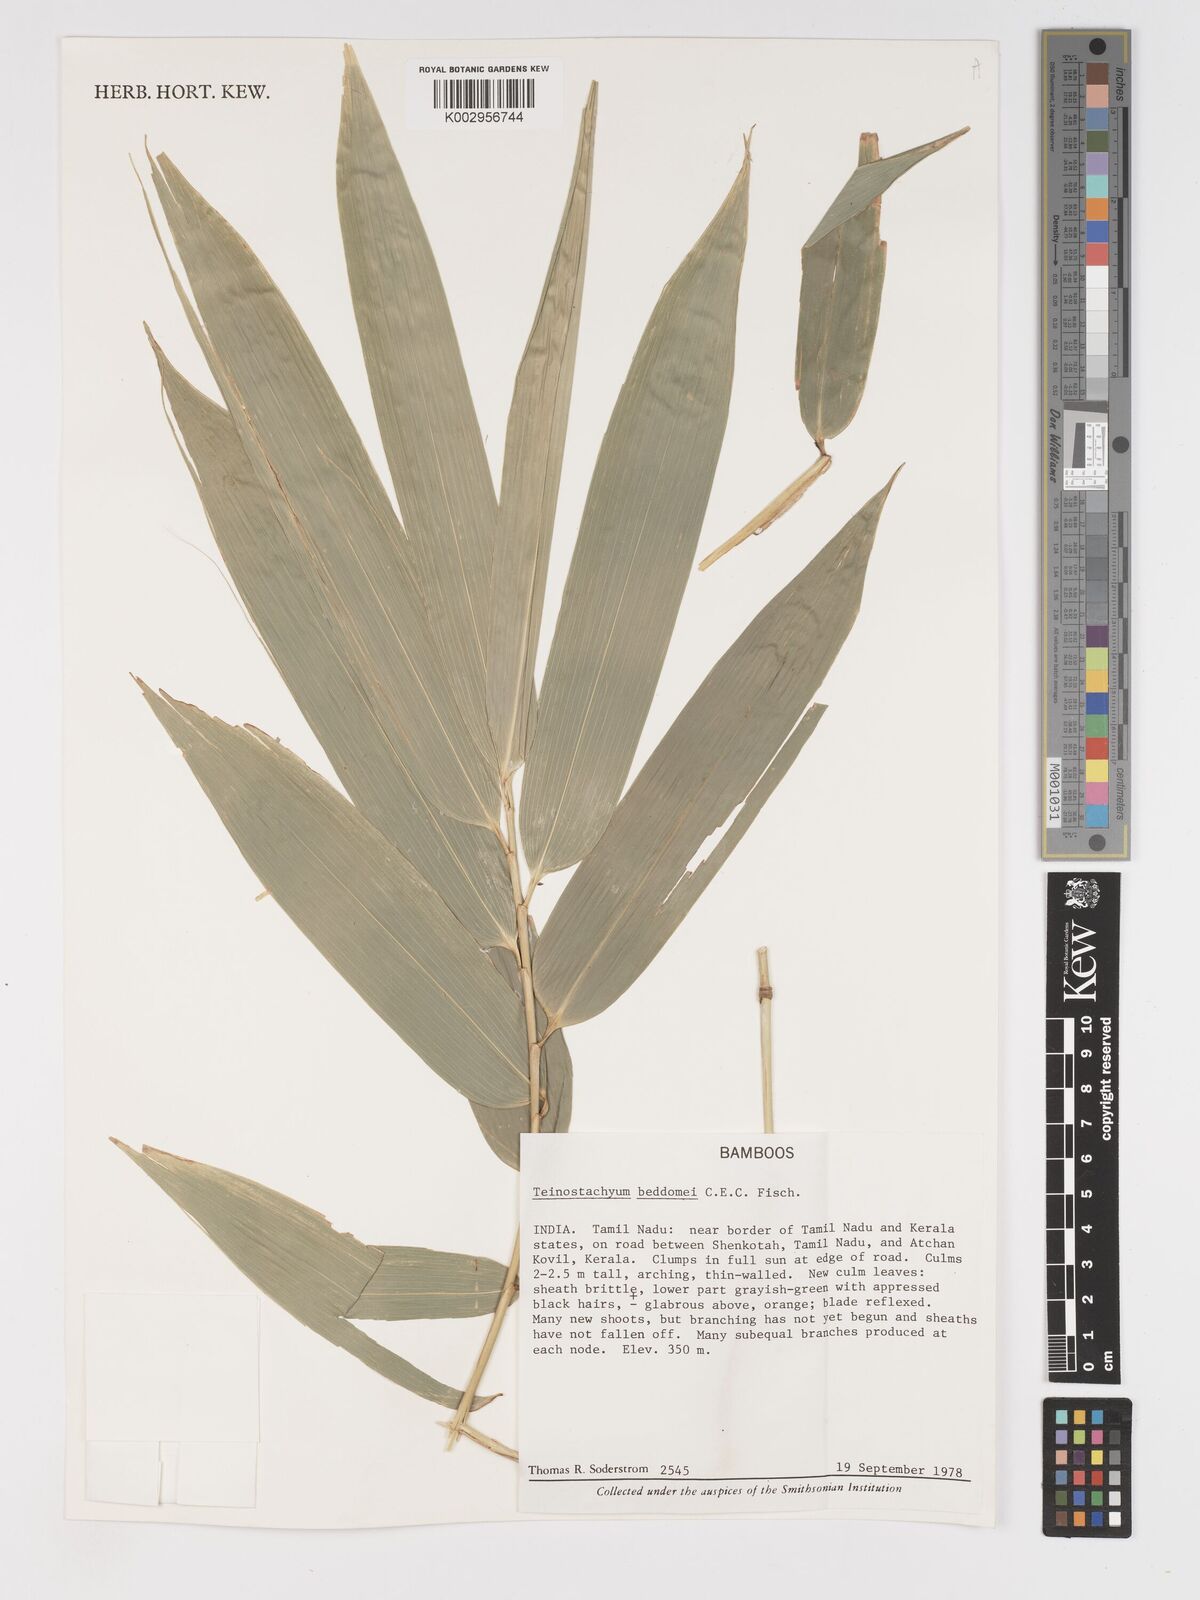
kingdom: Plantae
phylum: Tracheophyta
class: Liliopsida
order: Poales
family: Poaceae
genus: Schizostachyum
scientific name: Schizostachyum
